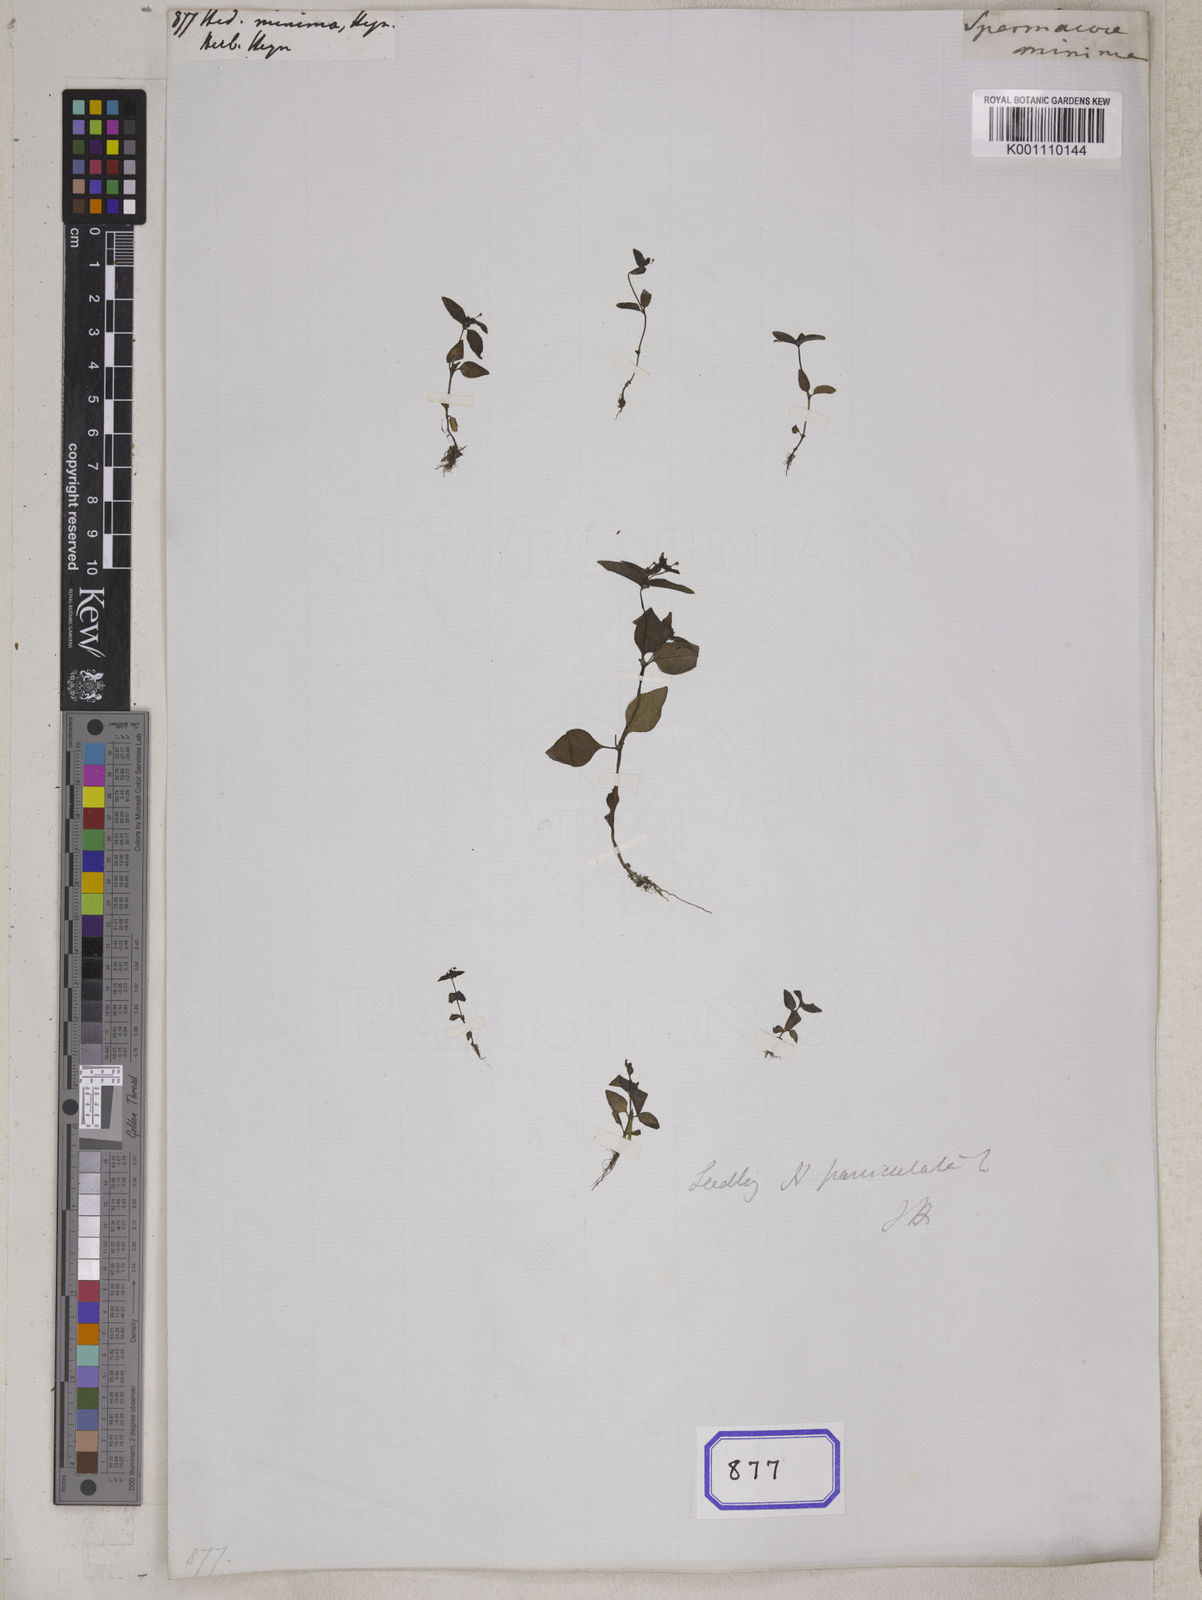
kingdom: Plantae
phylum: Tracheophyta
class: Magnoliopsida
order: Gentianales
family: Rubiaceae
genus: Hedyotis
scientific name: Hedyotis
